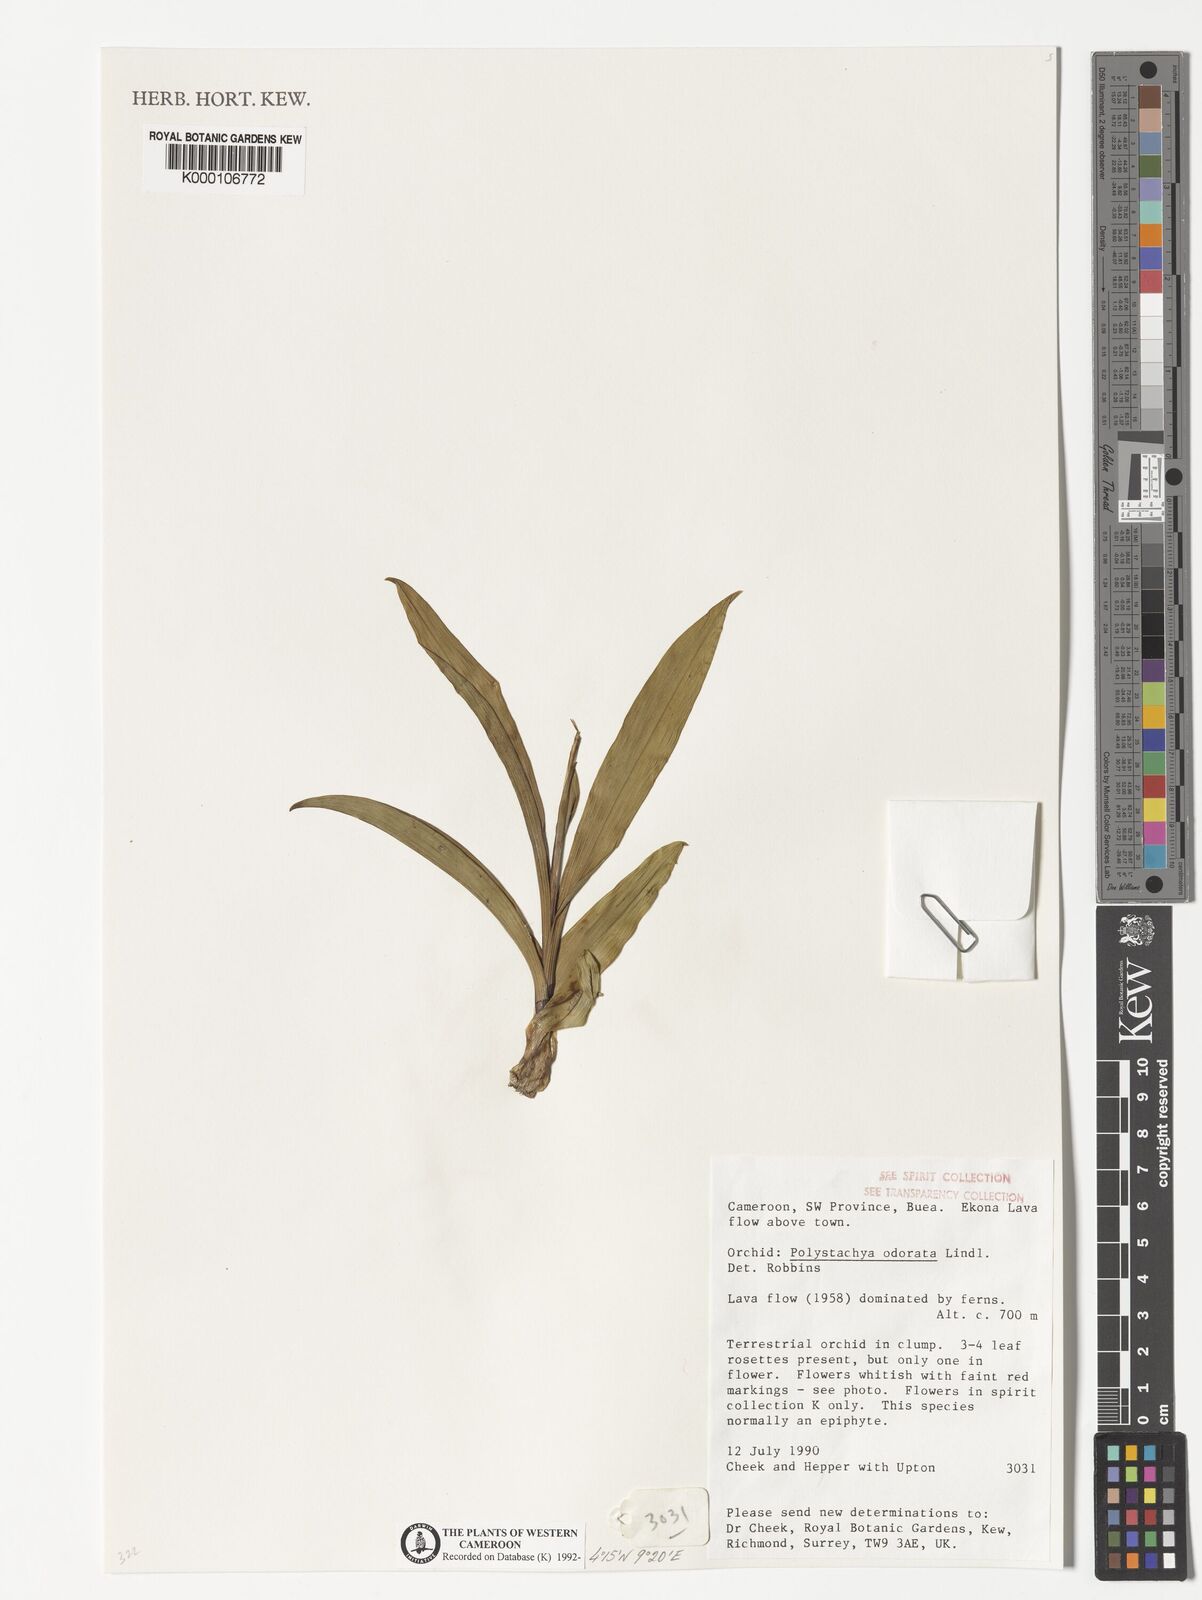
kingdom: Plantae
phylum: Tracheophyta
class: Liliopsida
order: Asparagales
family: Orchidaceae
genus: Polystachya
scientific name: Polystachya odorata
